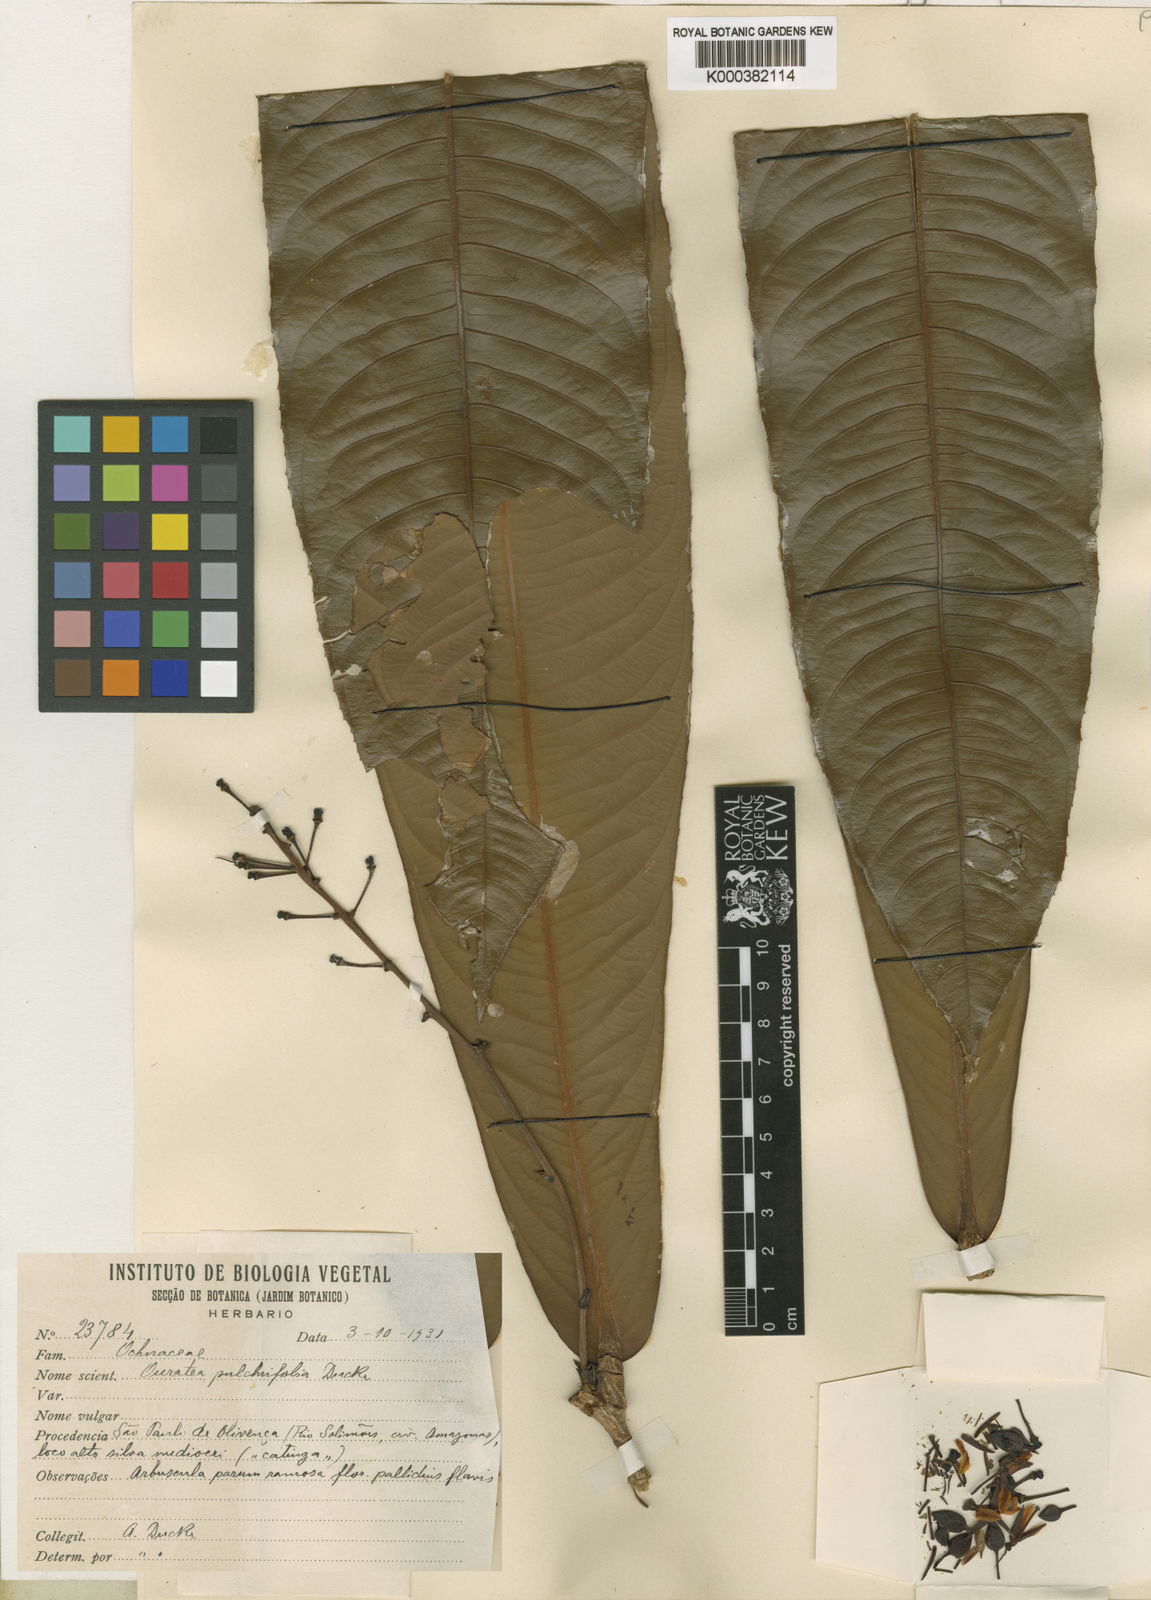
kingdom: Plantae
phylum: Tracheophyta
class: Magnoliopsida
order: Malpighiales
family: Ochnaceae
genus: Ouratea
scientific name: Ouratea pulchrifolia
